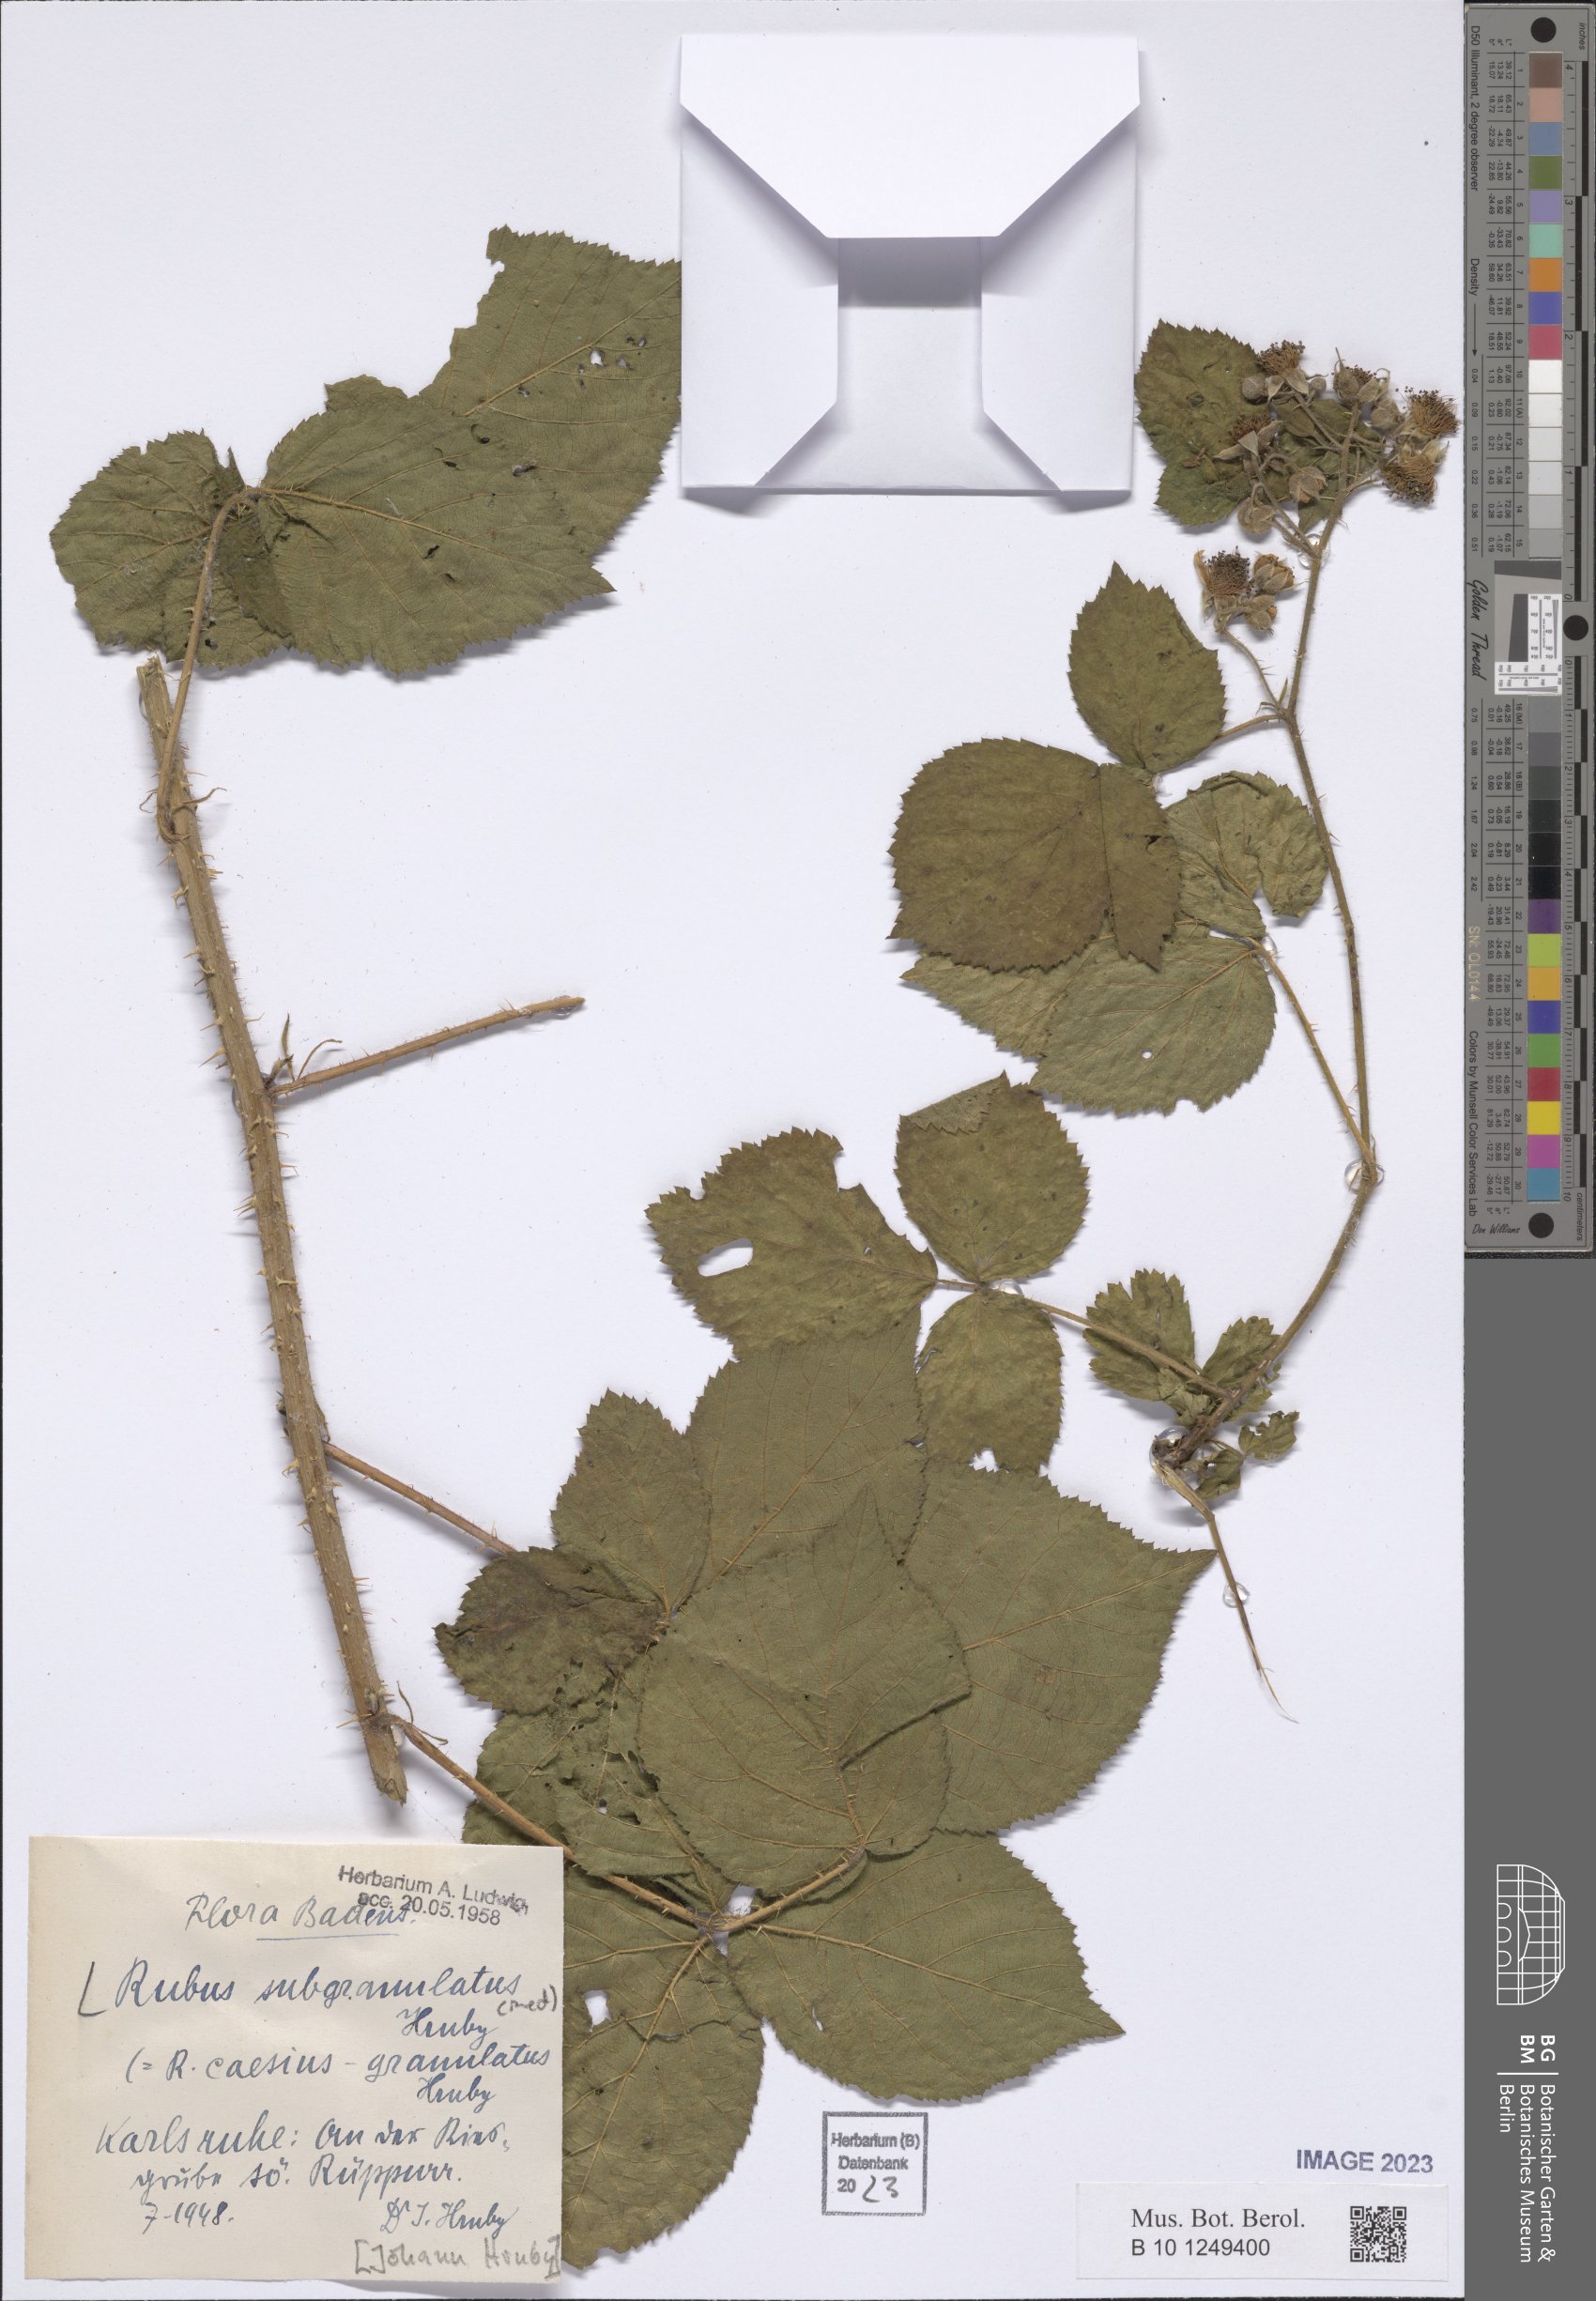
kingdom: Plantae
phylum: Tracheophyta
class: Magnoliopsida
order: Rosales
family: Rosaceae
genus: Rubus
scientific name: Rubus
